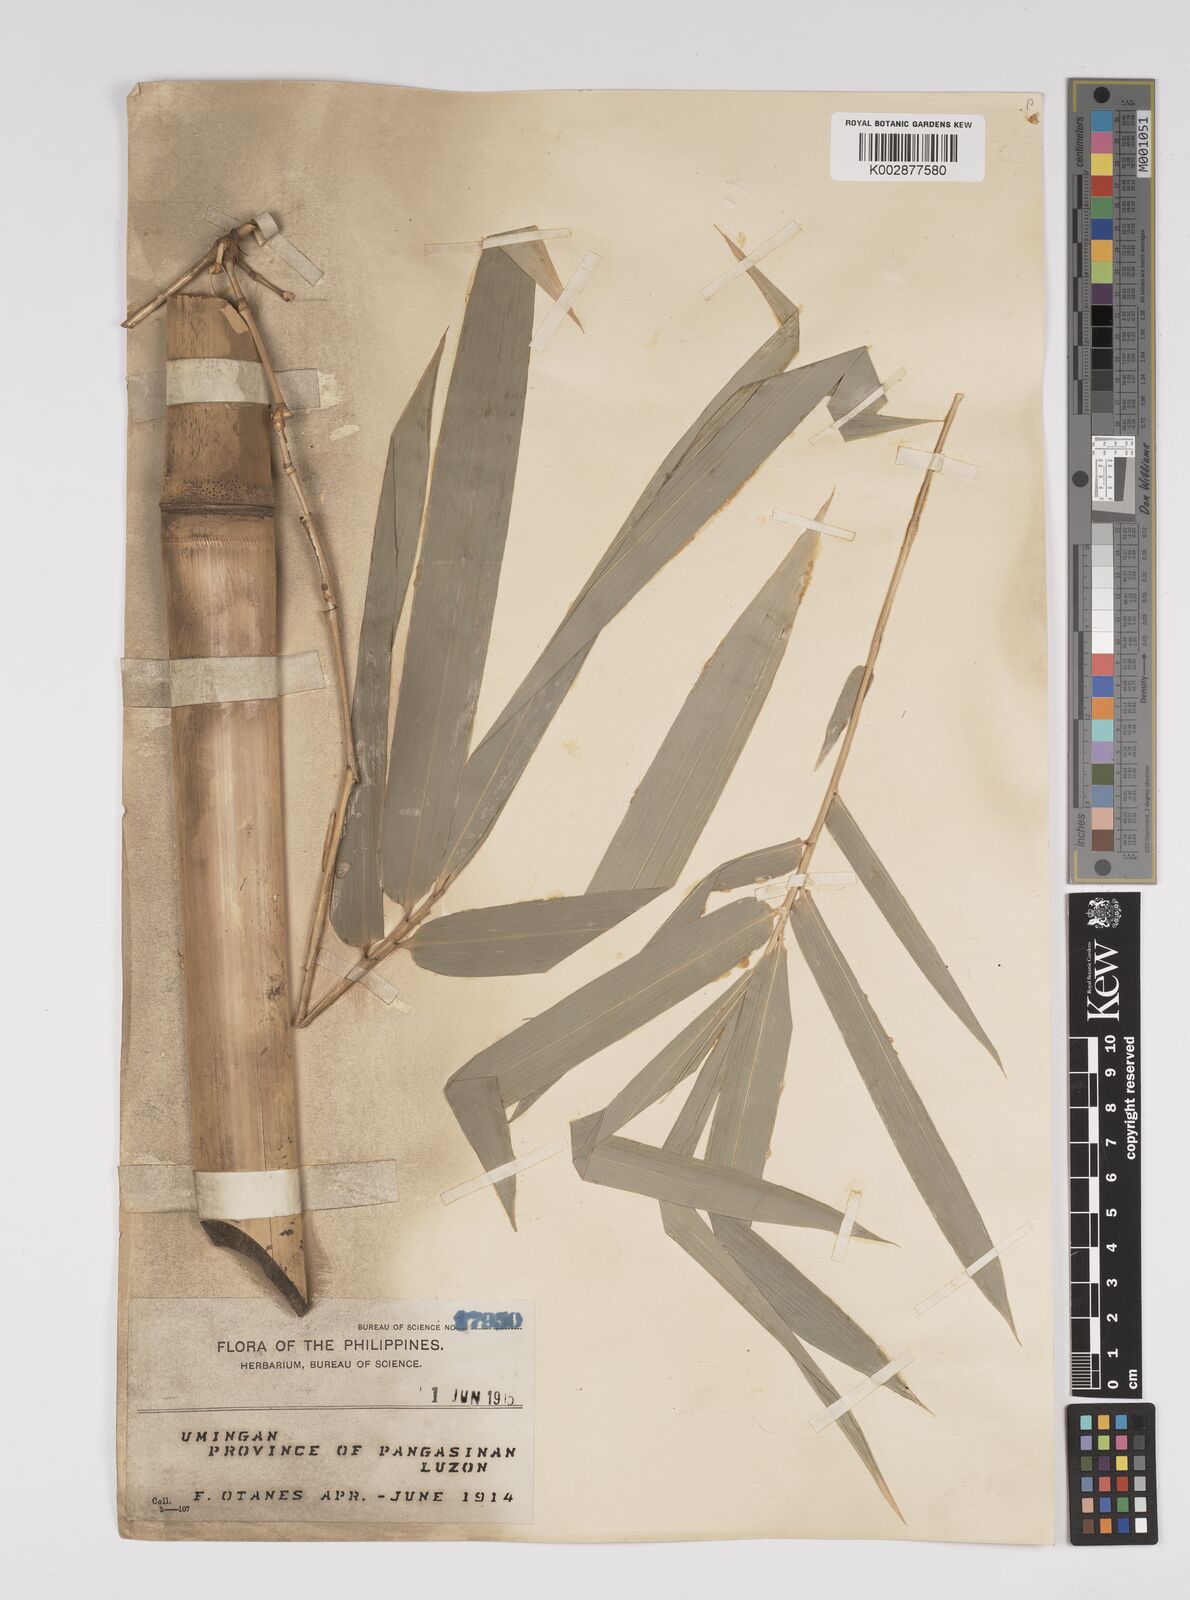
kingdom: Plantae
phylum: Tracheophyta
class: Liliopsida
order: Poales
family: Poaceae
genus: Bambusa
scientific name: Bambusa
